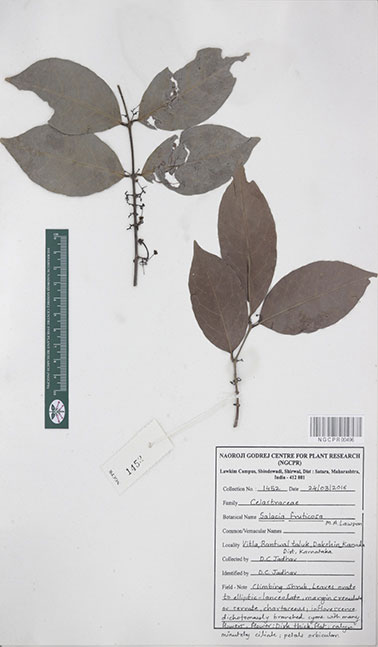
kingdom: Plantae
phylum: Tracheophyta
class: Magnoliopsida
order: Celastrales
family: Celastraceae
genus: Salacia
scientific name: Salacia fruticosa
